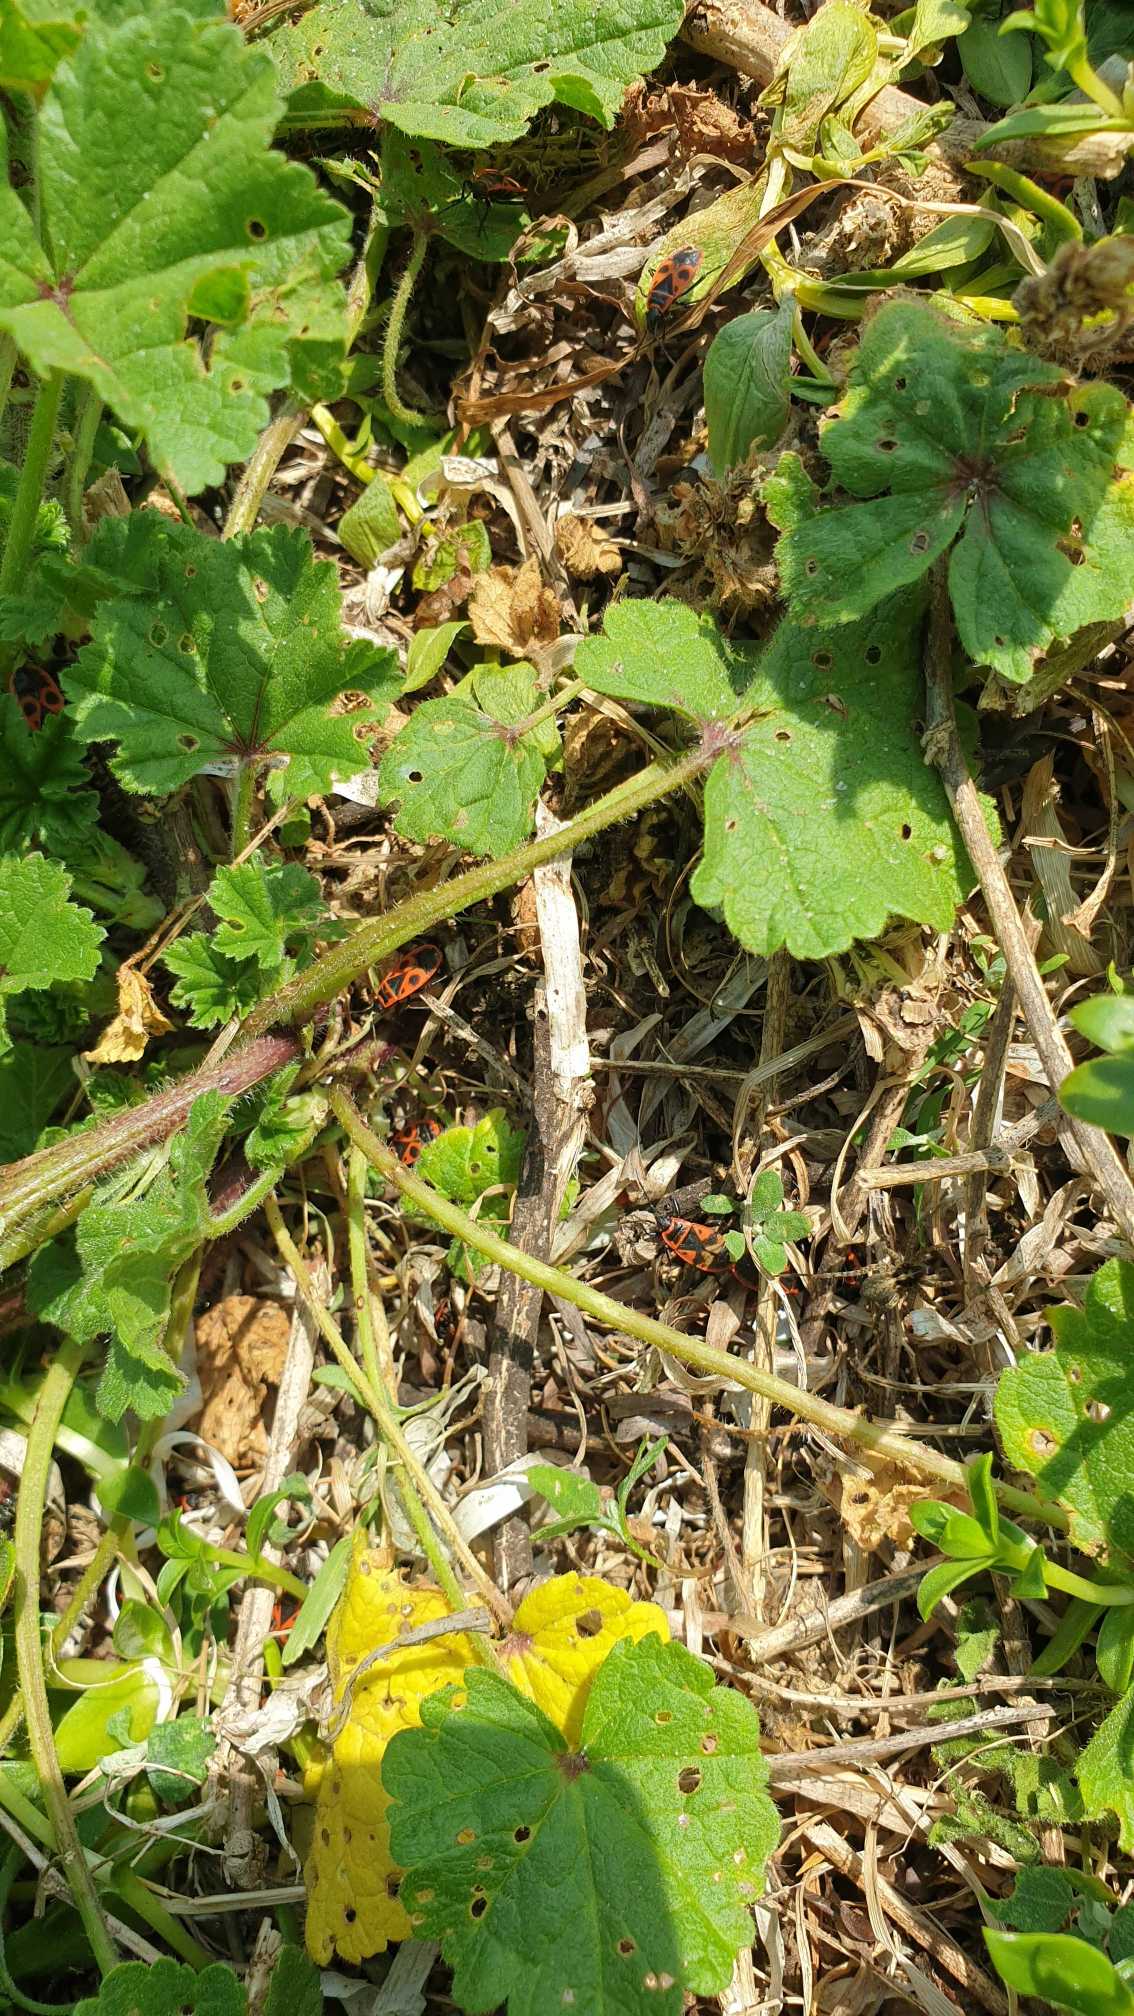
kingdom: Animalia
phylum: Arthropoda
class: Insecta
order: Hemiptera
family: Pyrrhocoridae
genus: Pyrrhocoris
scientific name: Pyrrhocoris apterus
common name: Ildtæge
